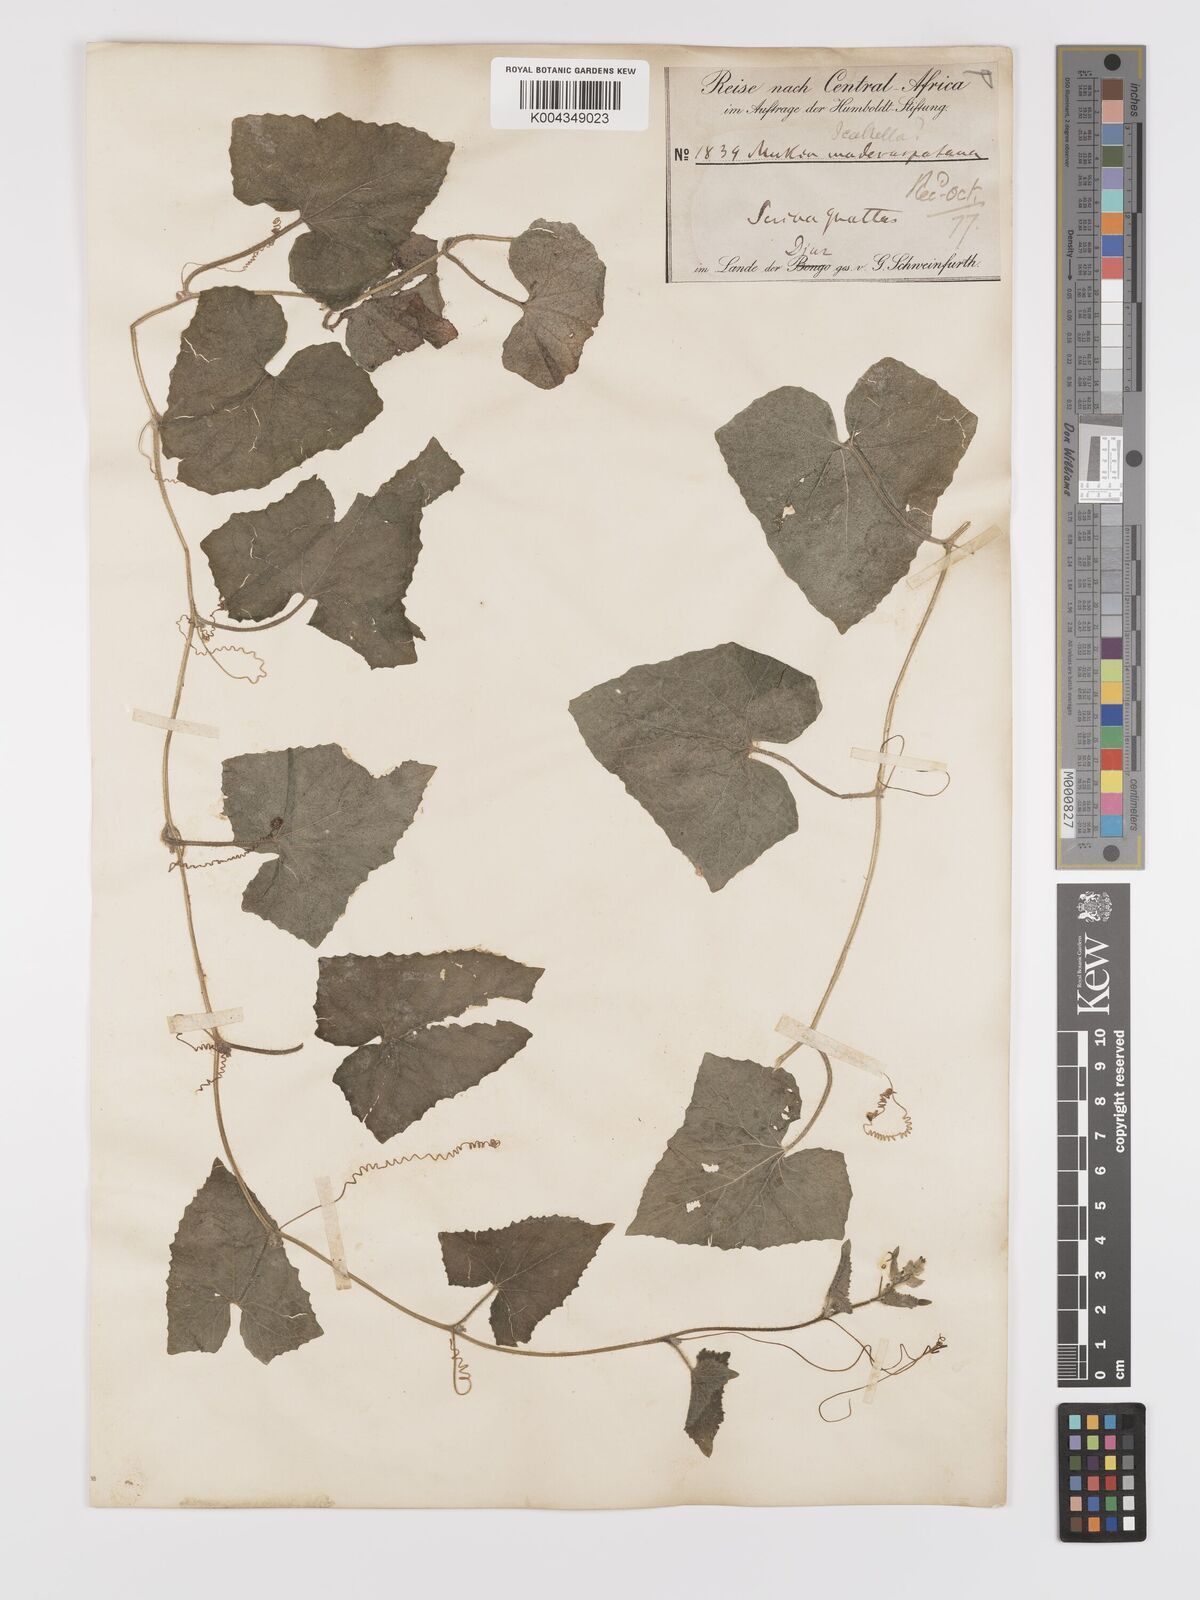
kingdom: Plantae
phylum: Tracheophyta
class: Magnoliopsida
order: Cucurbitales
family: Cucurbitaceae
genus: Cucumis
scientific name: Cucumis maderaspatanus
